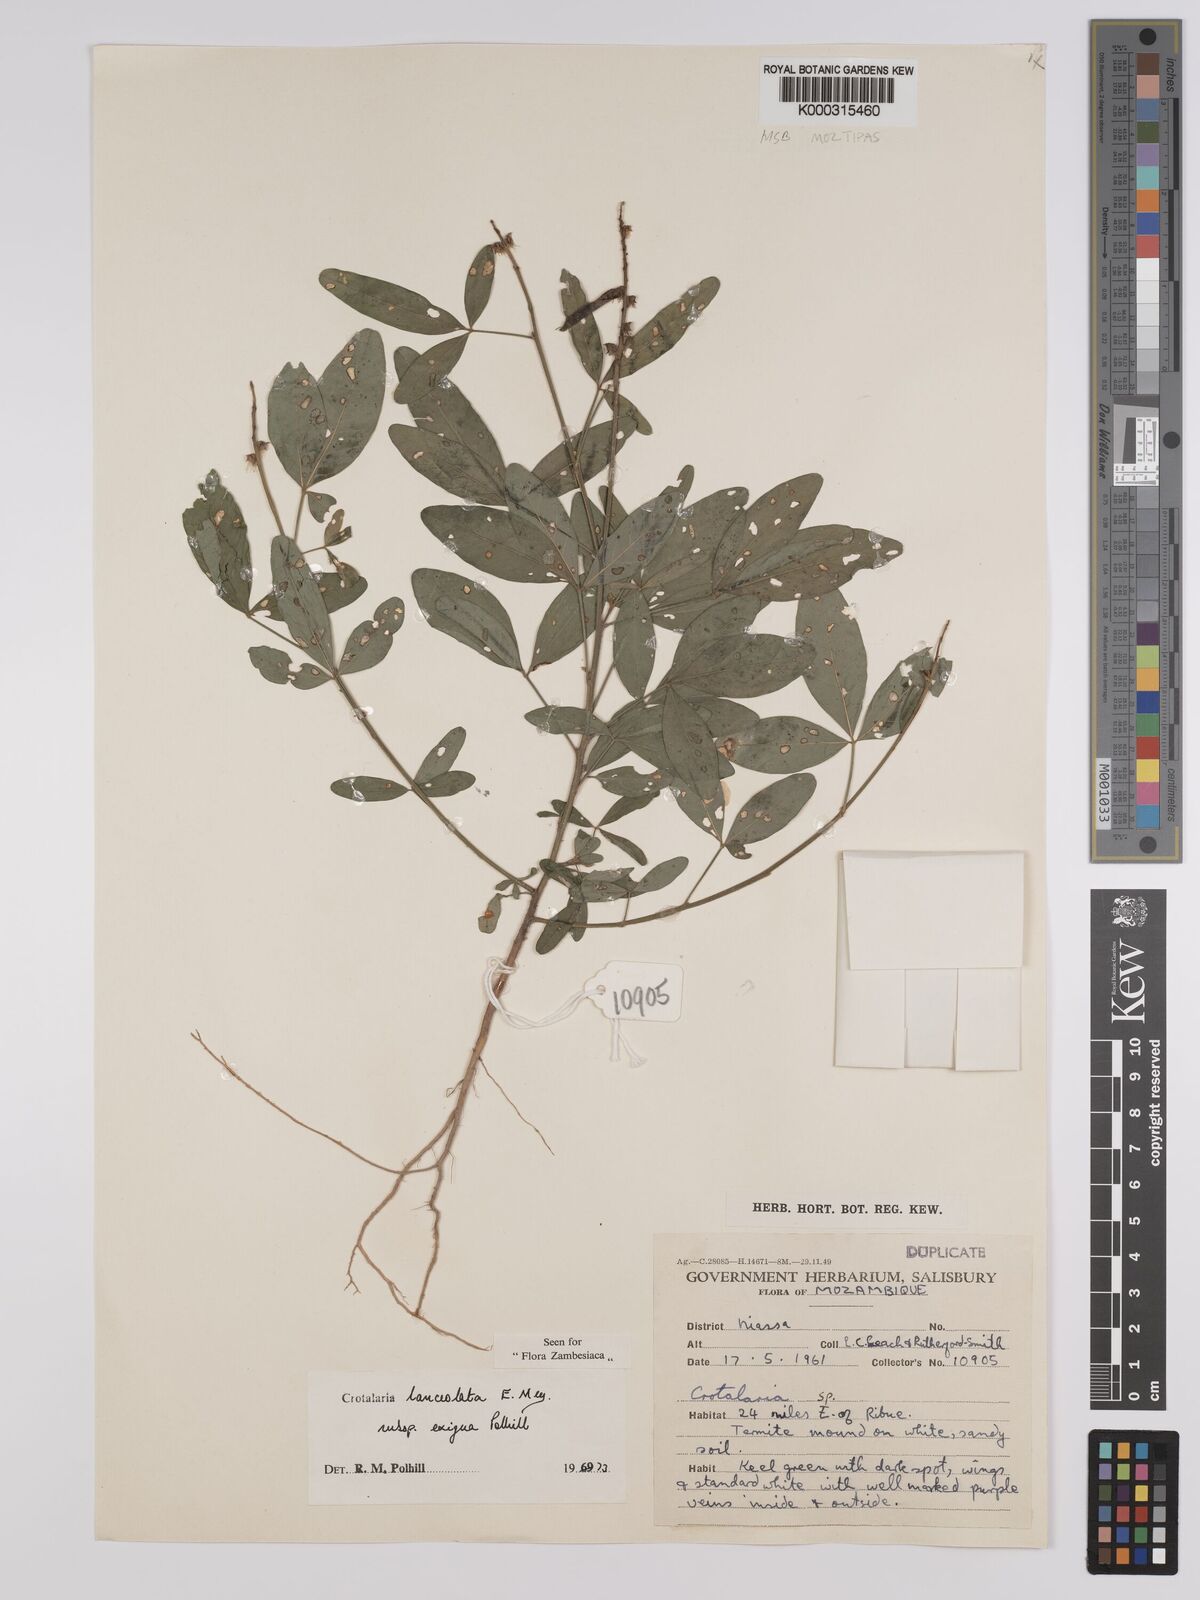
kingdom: Plantae
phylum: Tracheophyta
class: Magnoliopsida
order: Fabales
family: Fabaceae
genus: Crotalaria
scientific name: Crotalaria lanceolata
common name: Lanceleaf rattlebox
